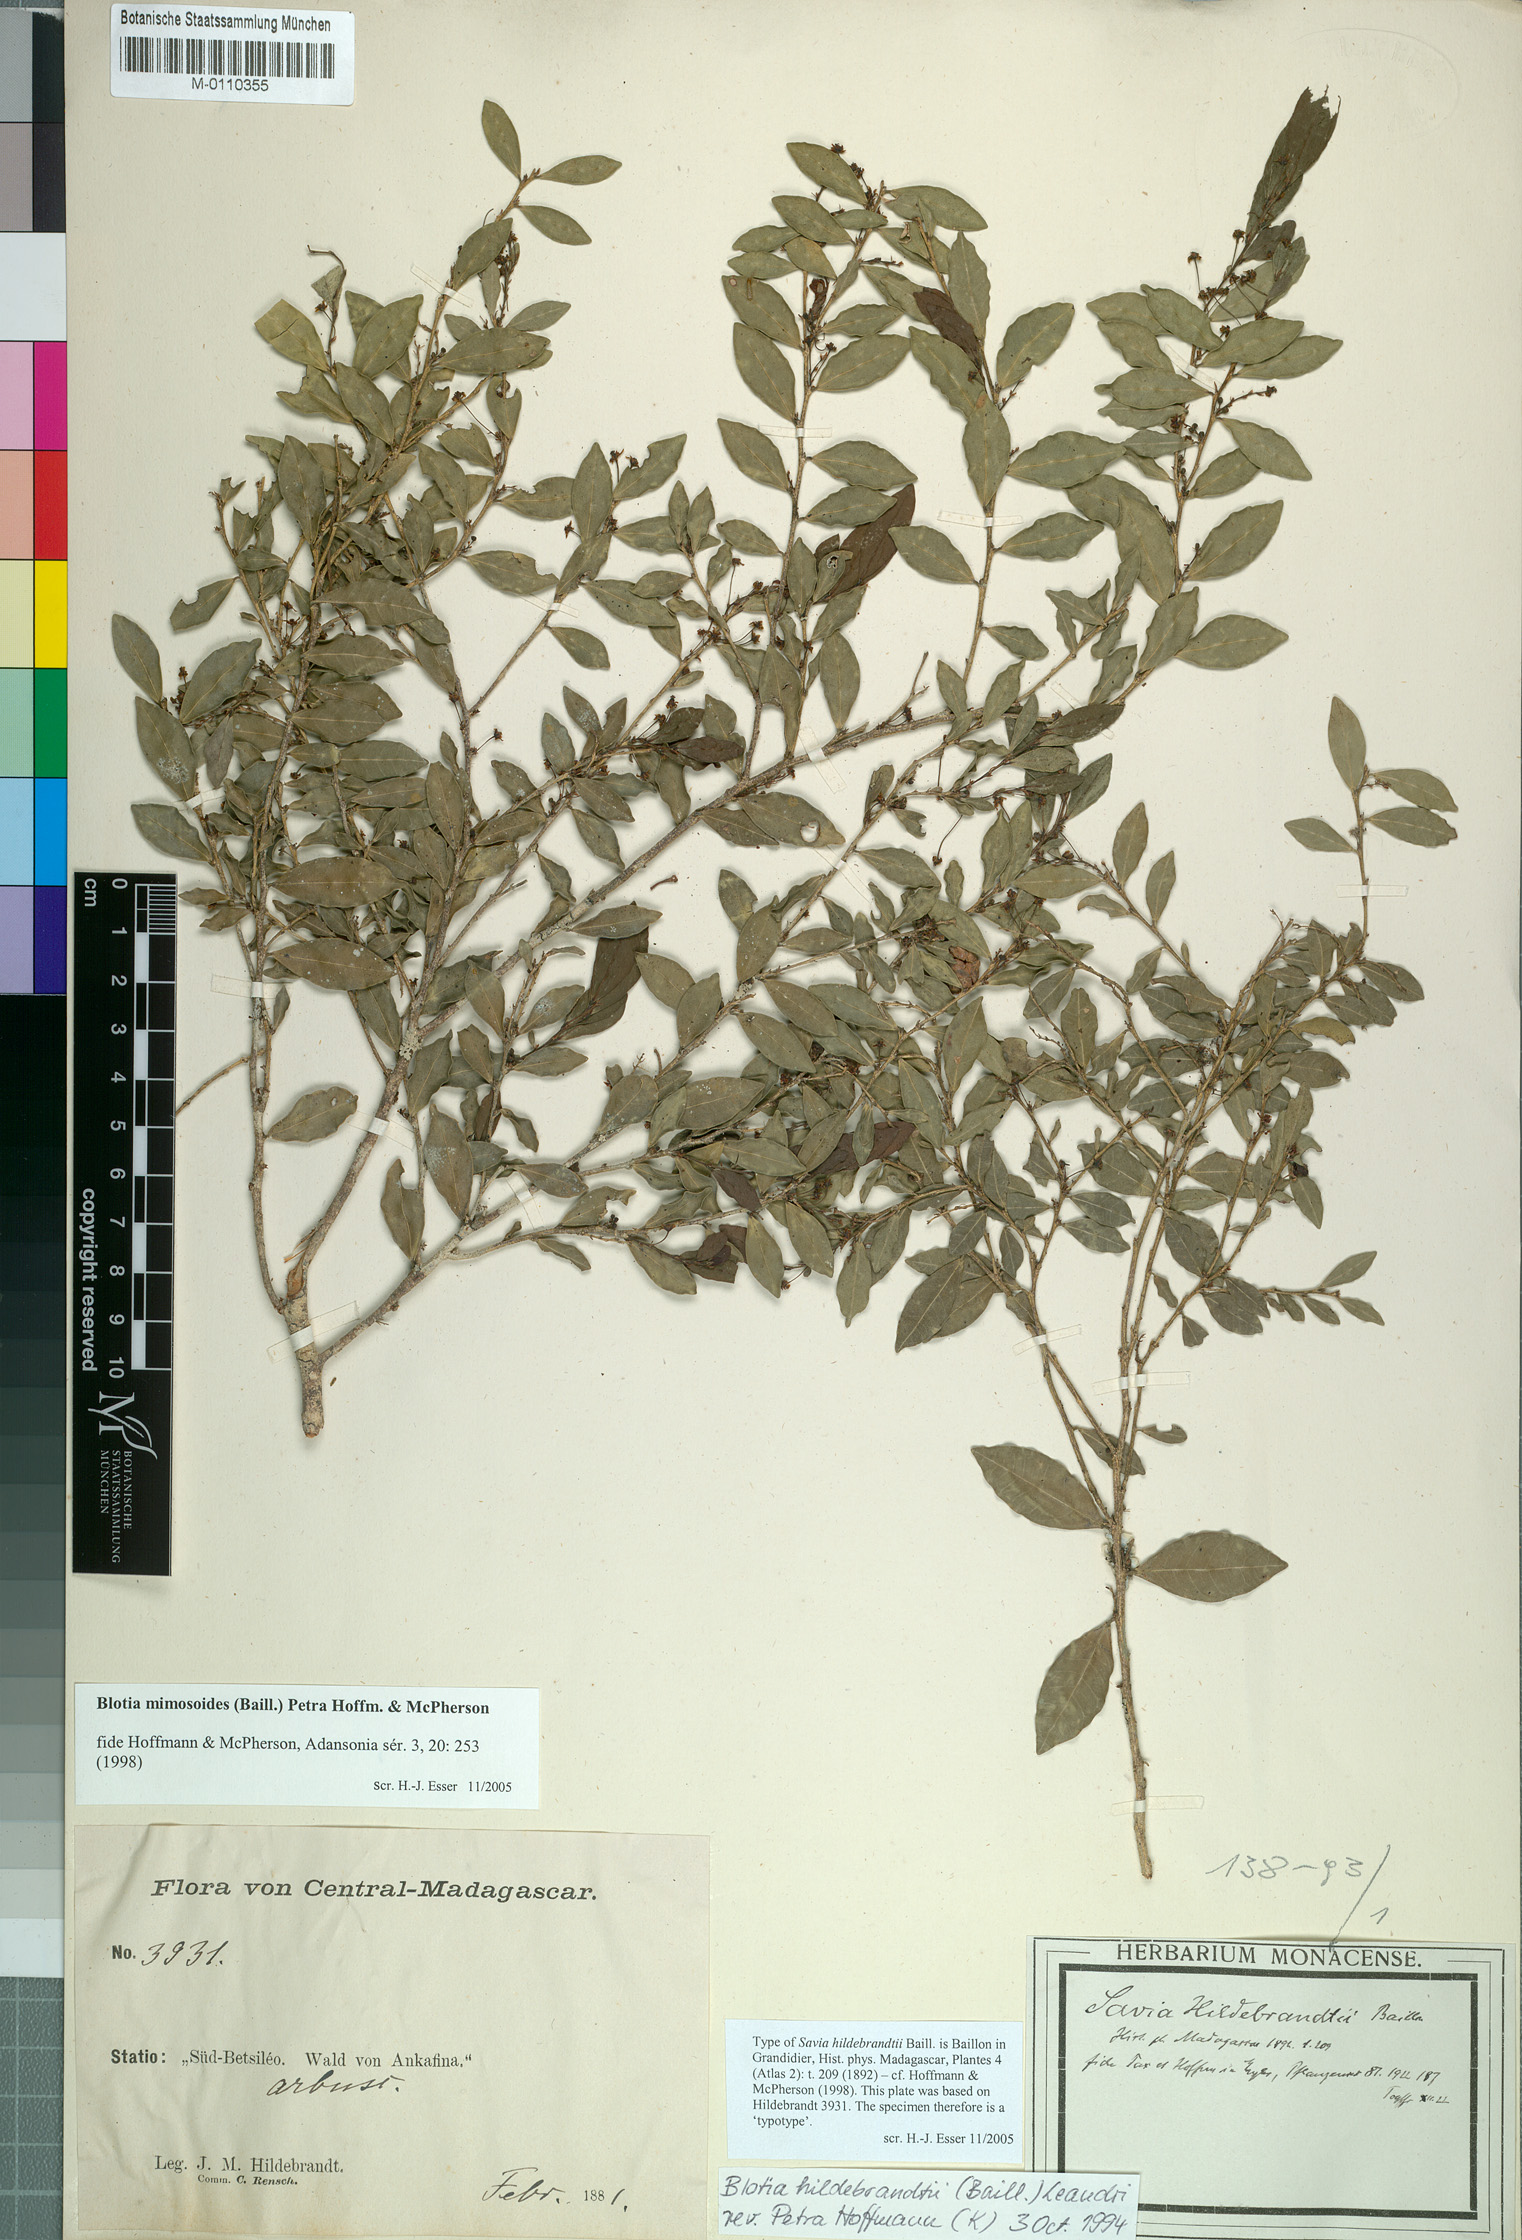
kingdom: Plantae
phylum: Tracheophyta
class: Magnoliopsida
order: Malpighiales
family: Phyllanthaceae
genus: Wielandia
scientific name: Wielandia mimosoides
